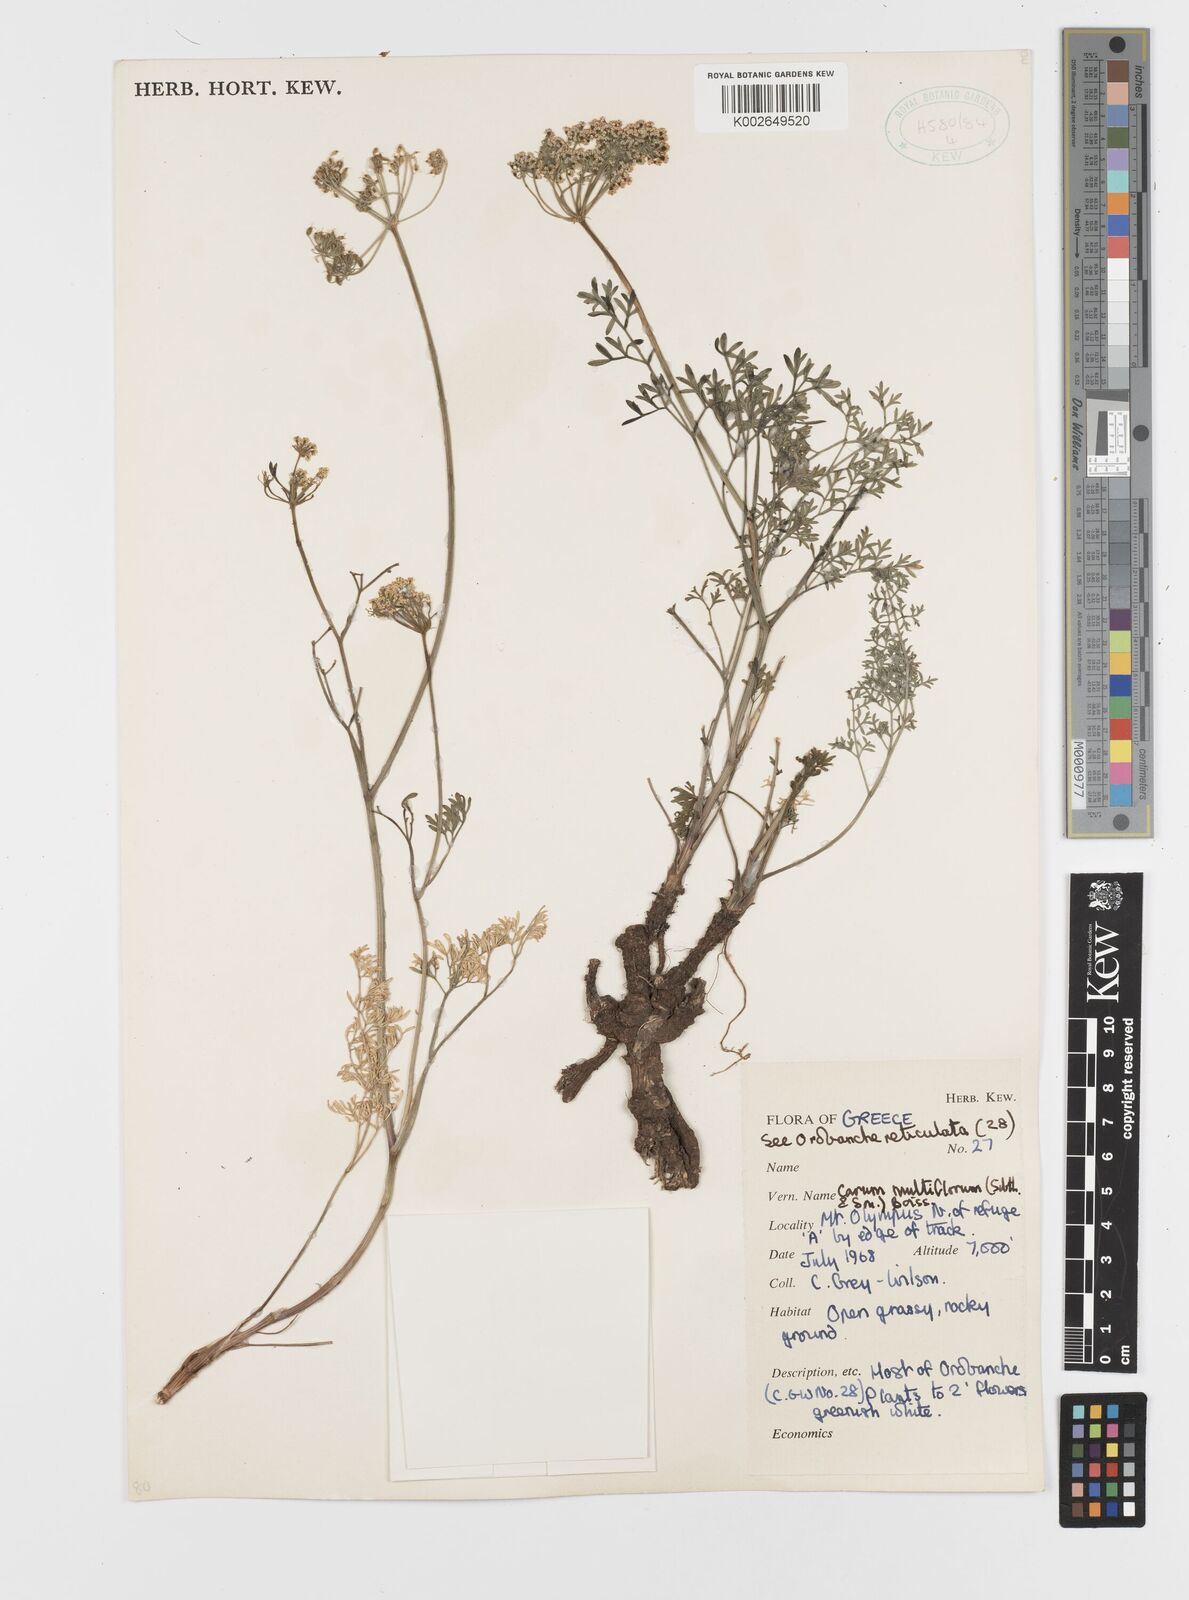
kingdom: Plantae
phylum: Tracheophyta
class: Magnoliopsida
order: Apiales
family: Apiaceae
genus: Hellenocarum
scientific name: Hellenocarum multiflorum
